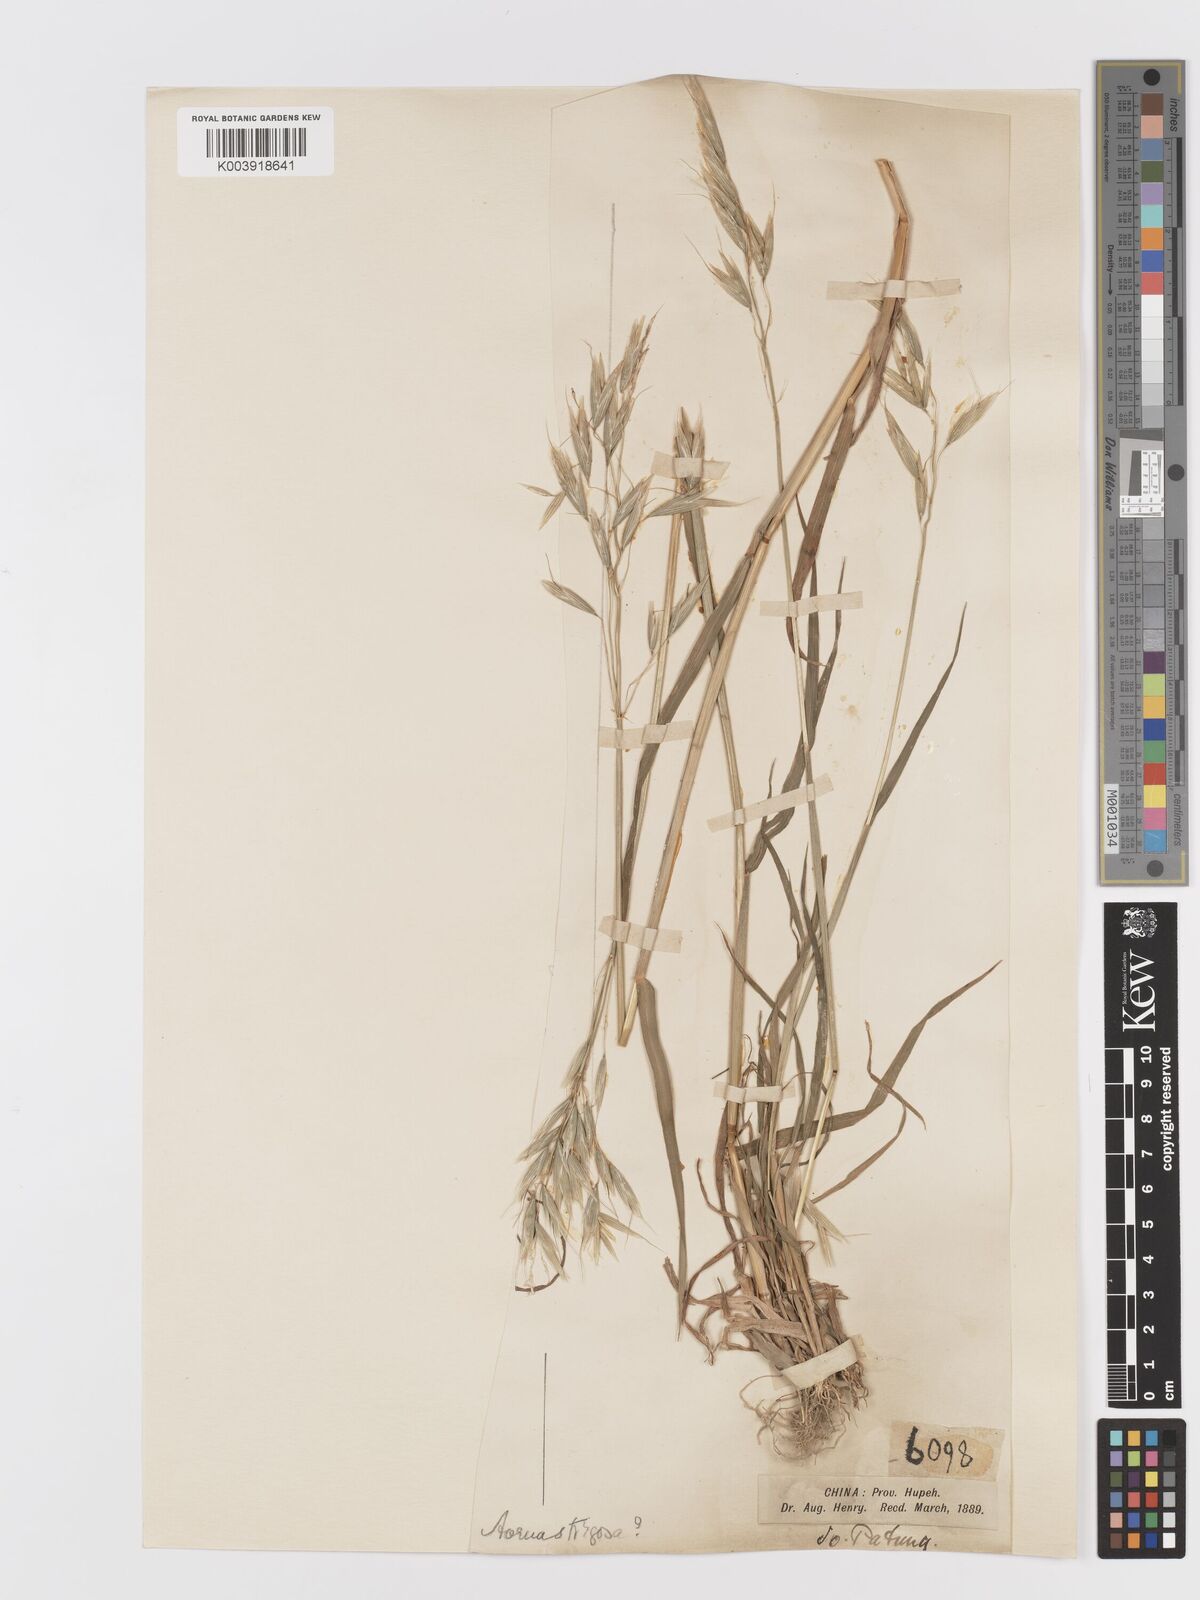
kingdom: Plantae
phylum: Tracheophyta
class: Liliopsida
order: Poales
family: Poaceae
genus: Avena
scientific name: Avena nuda
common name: Naked oat
